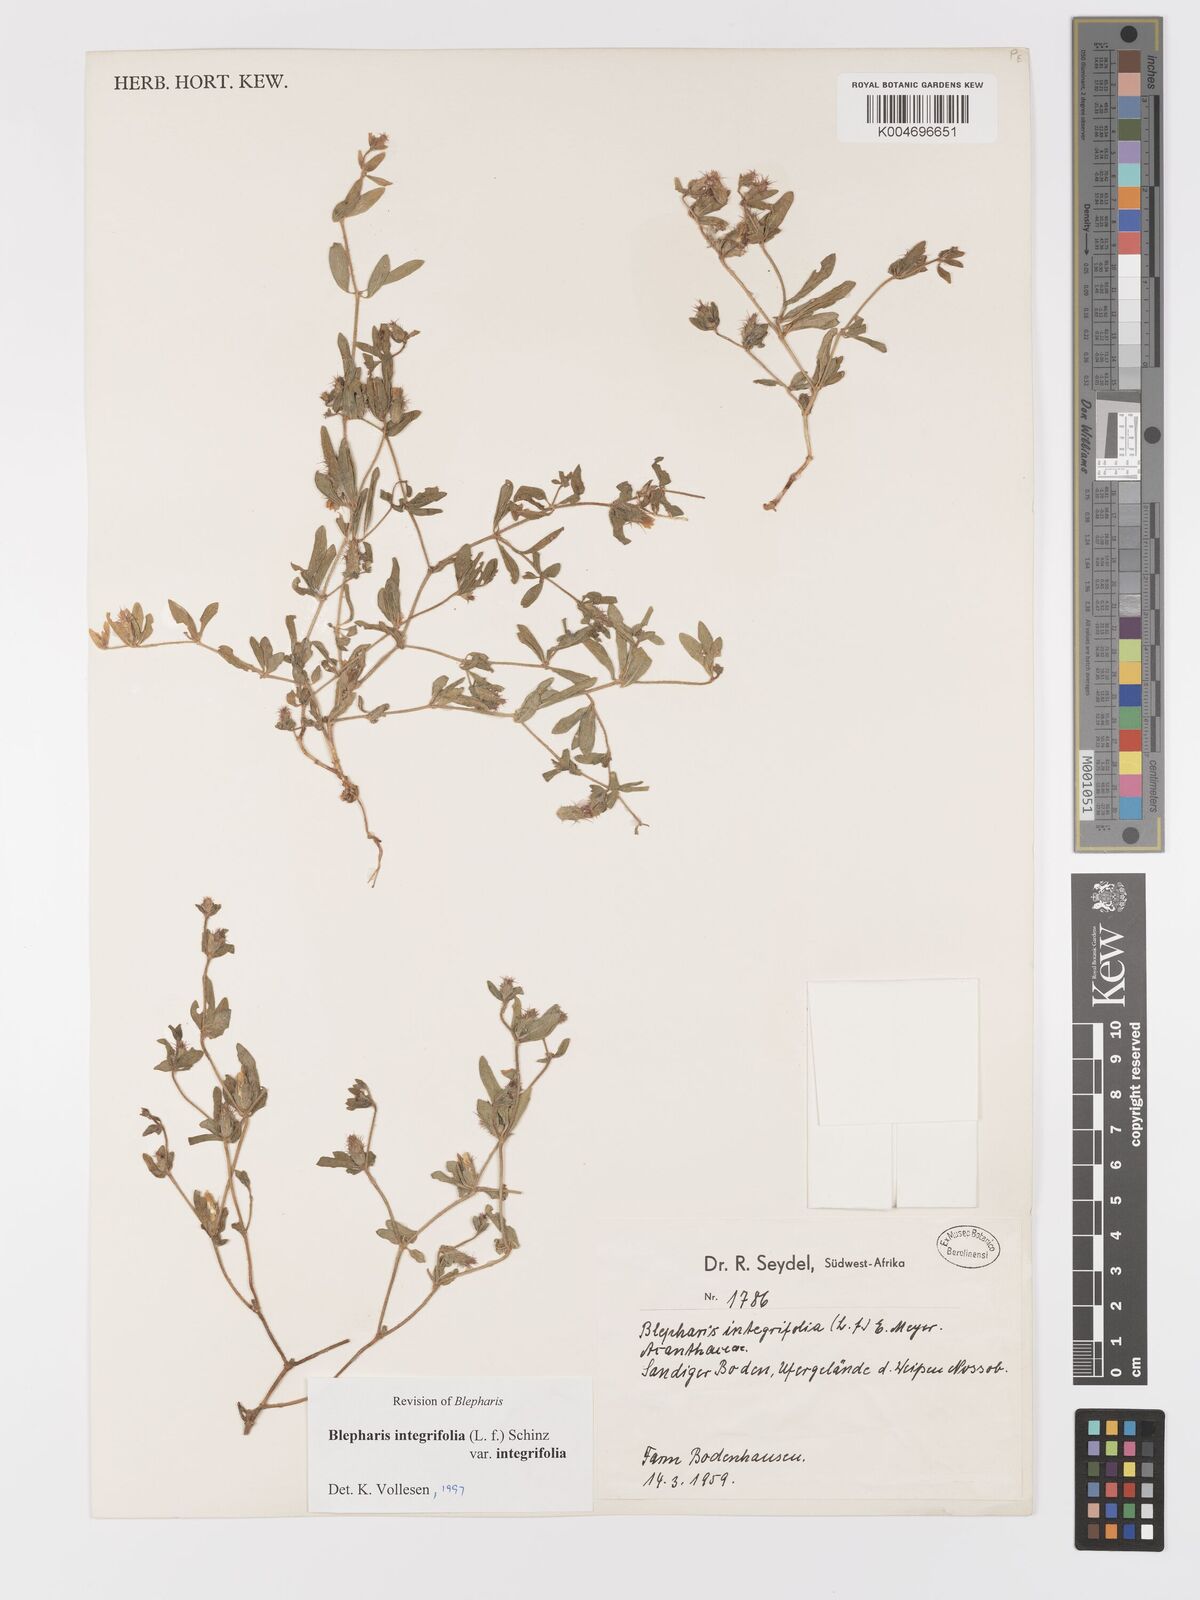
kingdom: Plantae
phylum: Tracheophyta
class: Magnoliopsida
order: Lamiales
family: Acanthaceae
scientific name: Acanthaceae
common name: Acanthaceae
